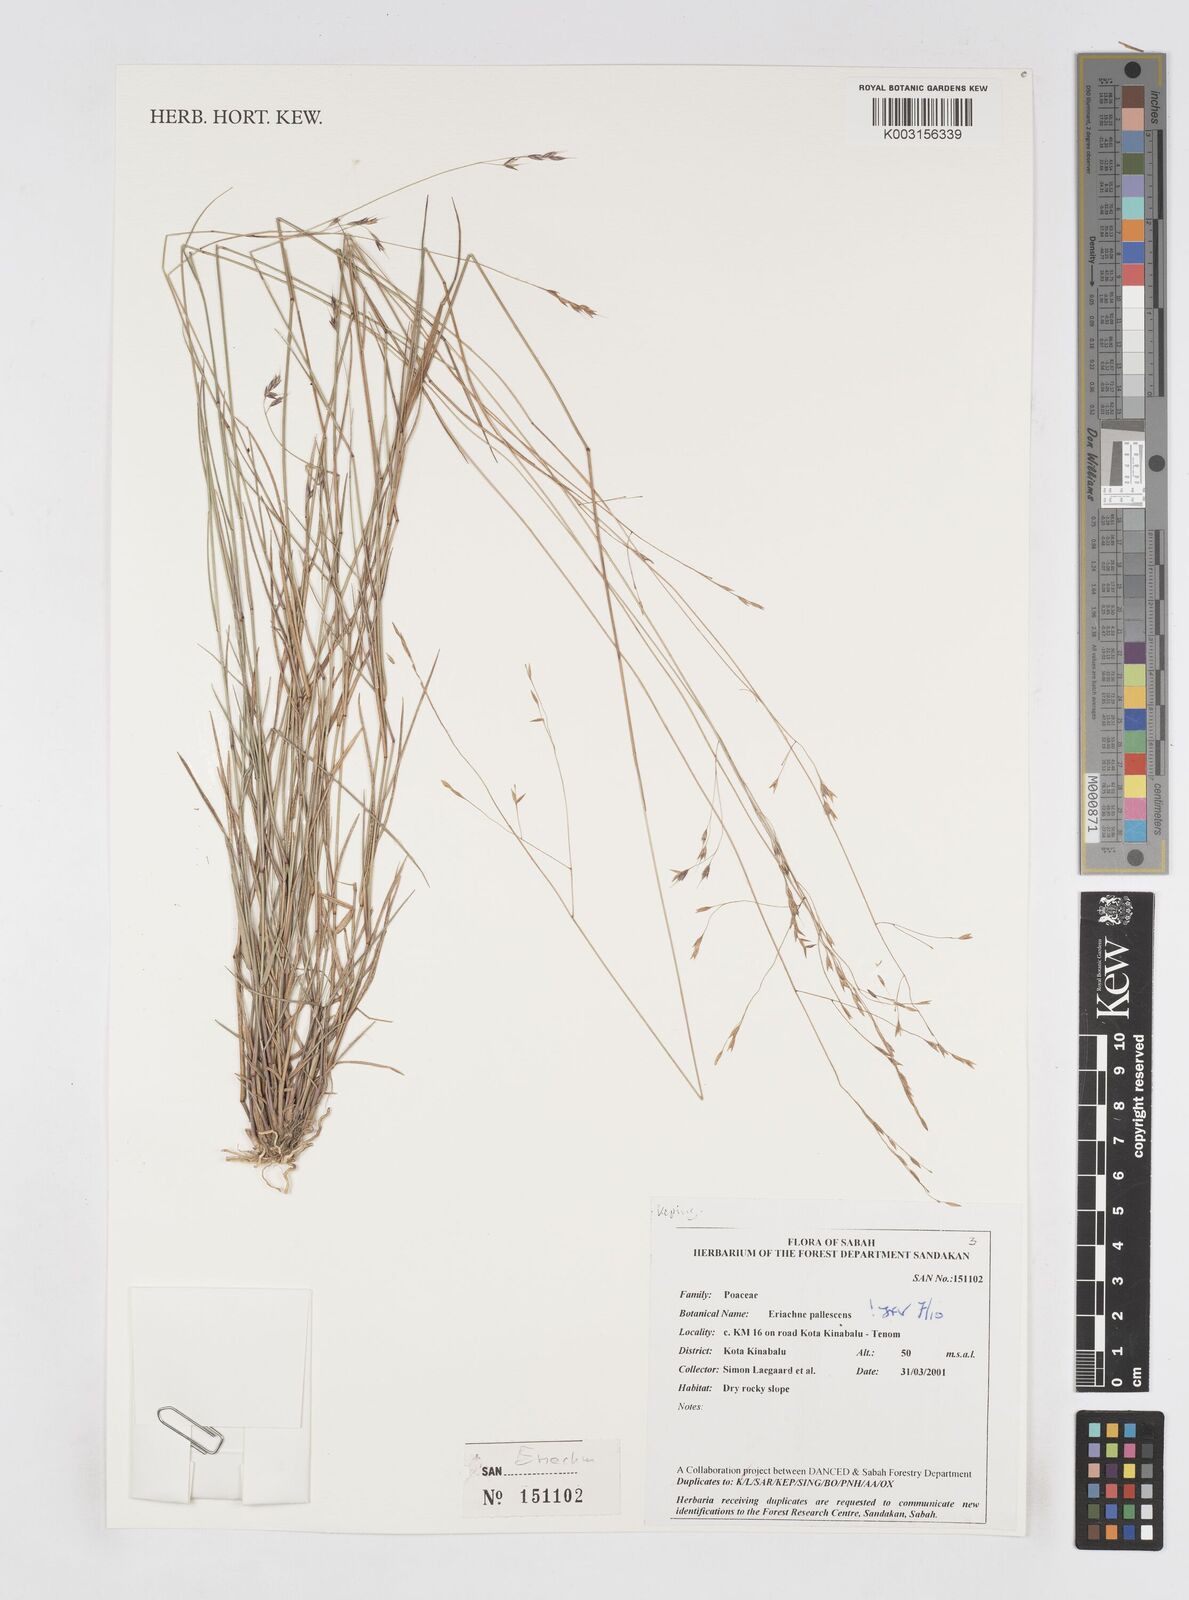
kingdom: Plantae
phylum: Tracheophyta
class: Liliopsida
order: Poales
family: Poaceae
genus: Eriachne
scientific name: Eriachne pallescens
